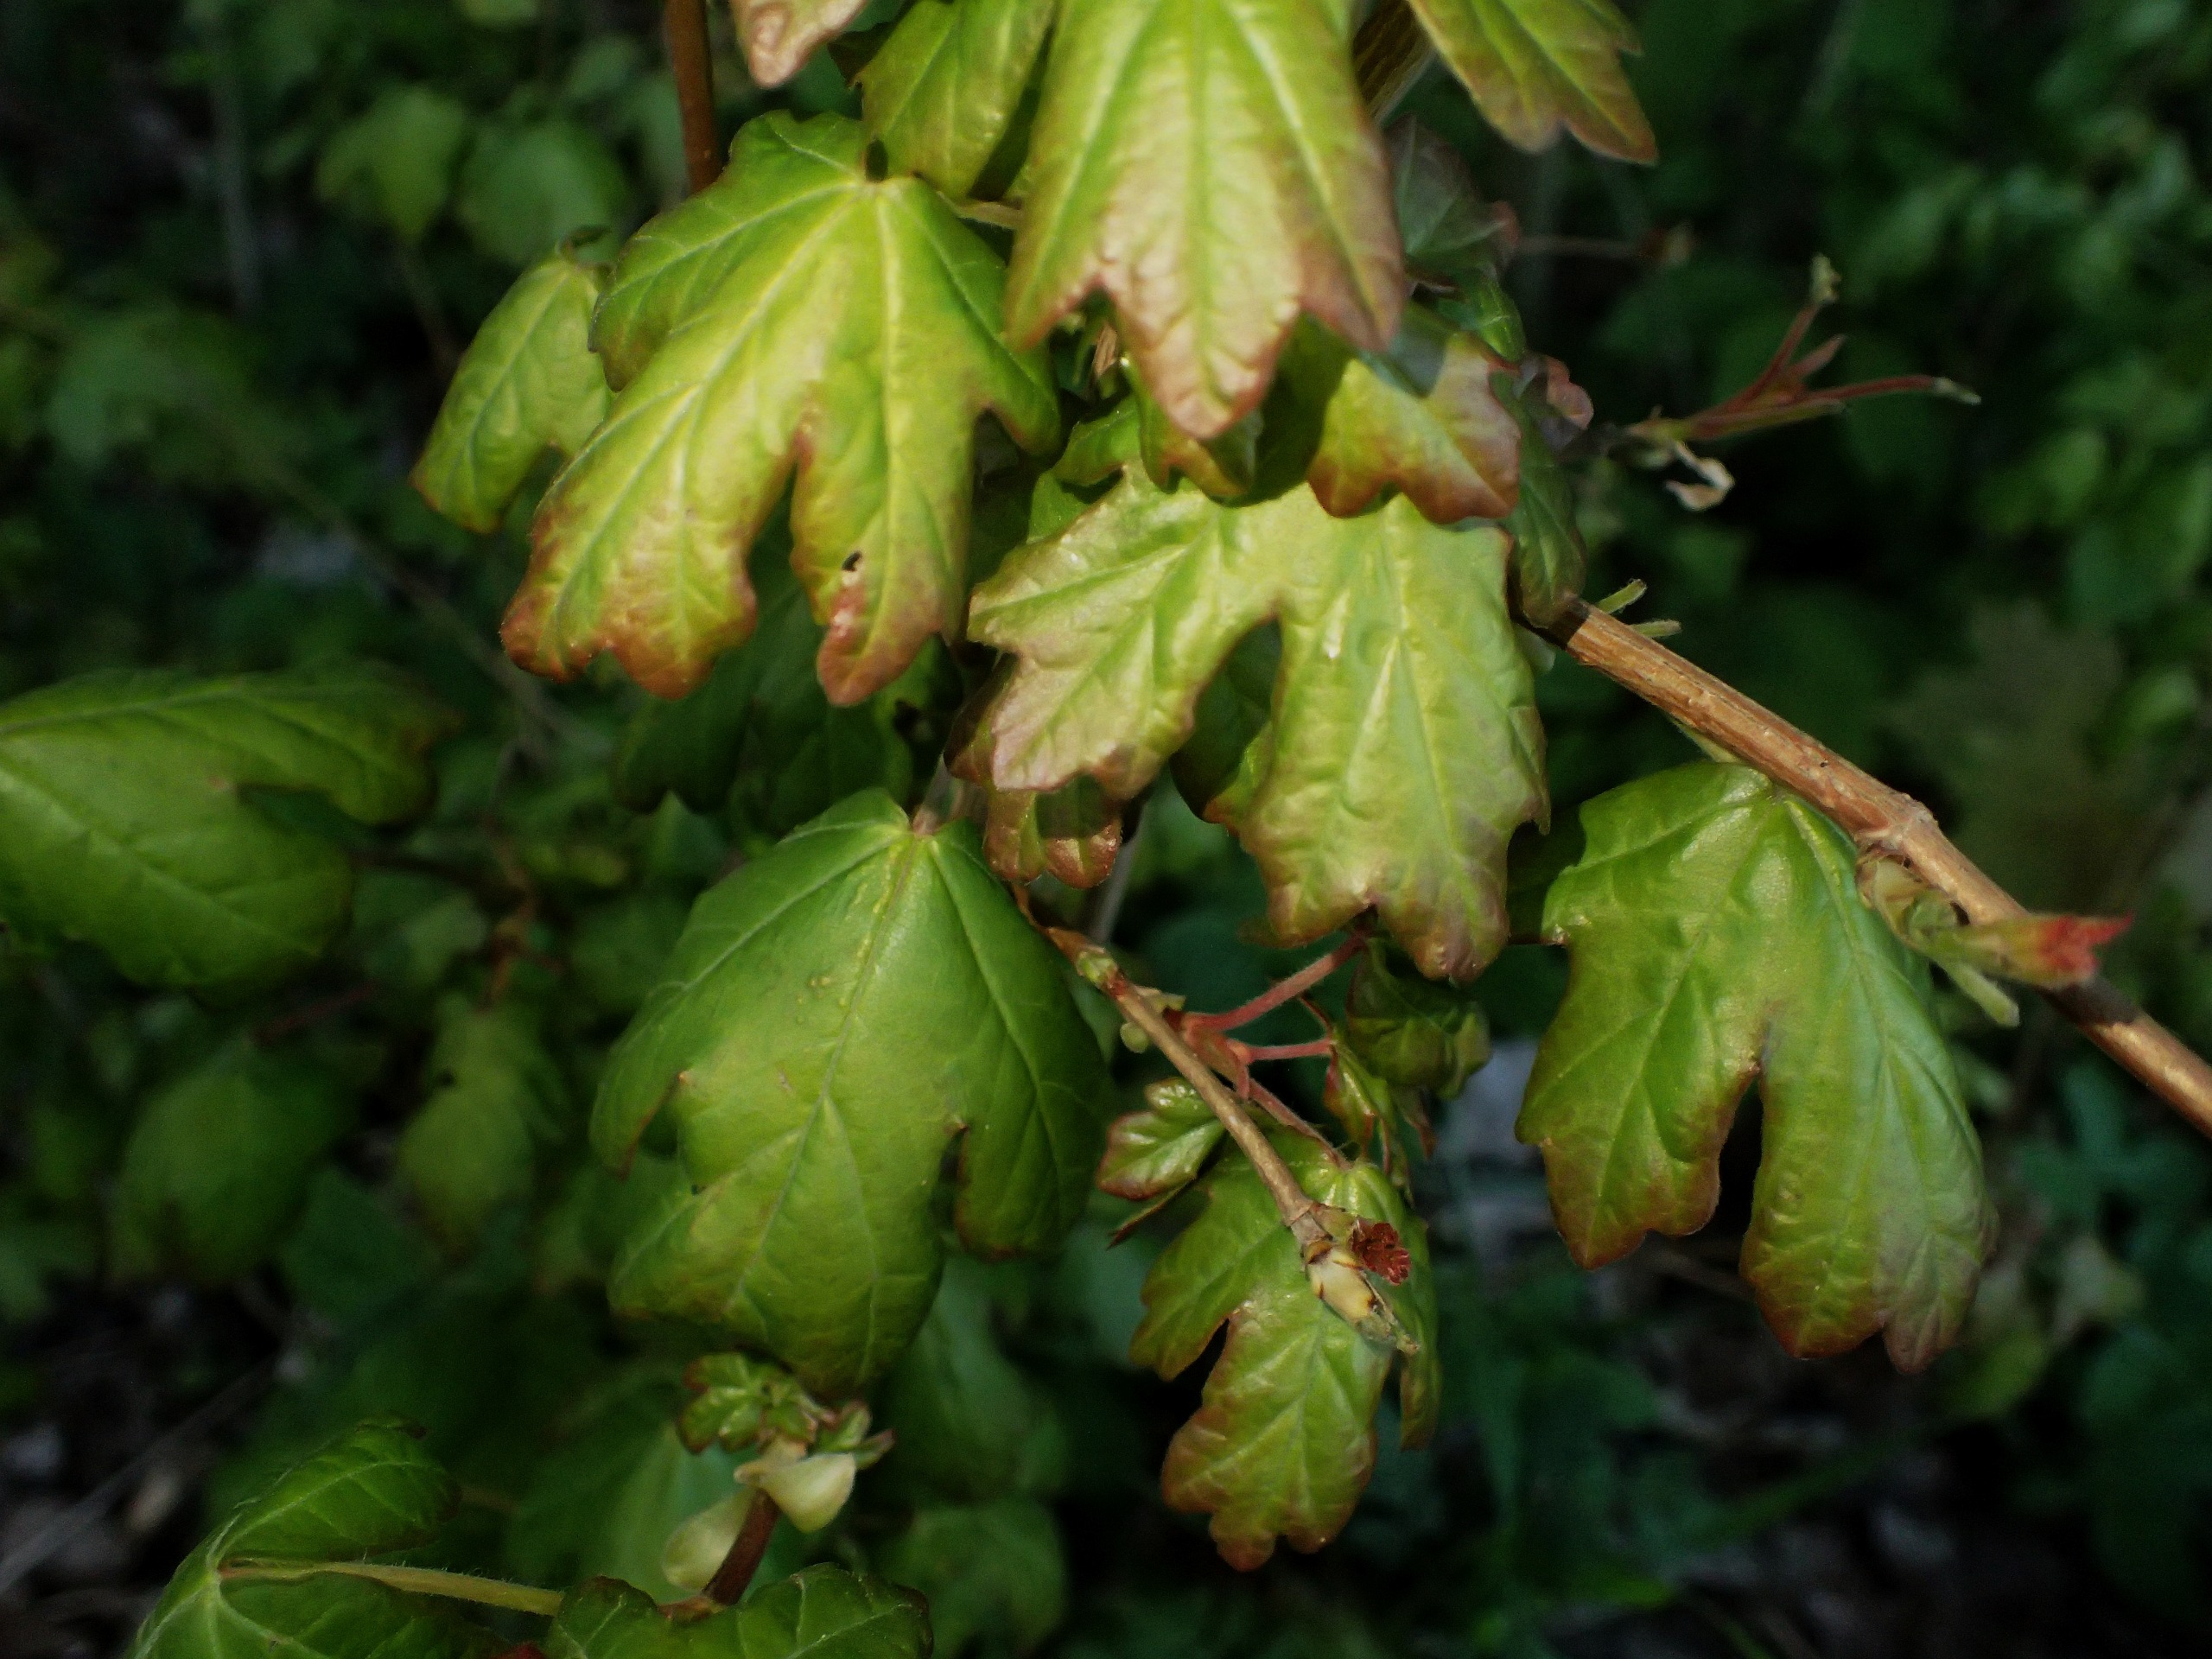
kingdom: Plantae
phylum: Tracheophyta
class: Magnoliopsida
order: Sapindales
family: Sapindaceae
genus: Acer
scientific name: Acer campestre
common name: Navr
